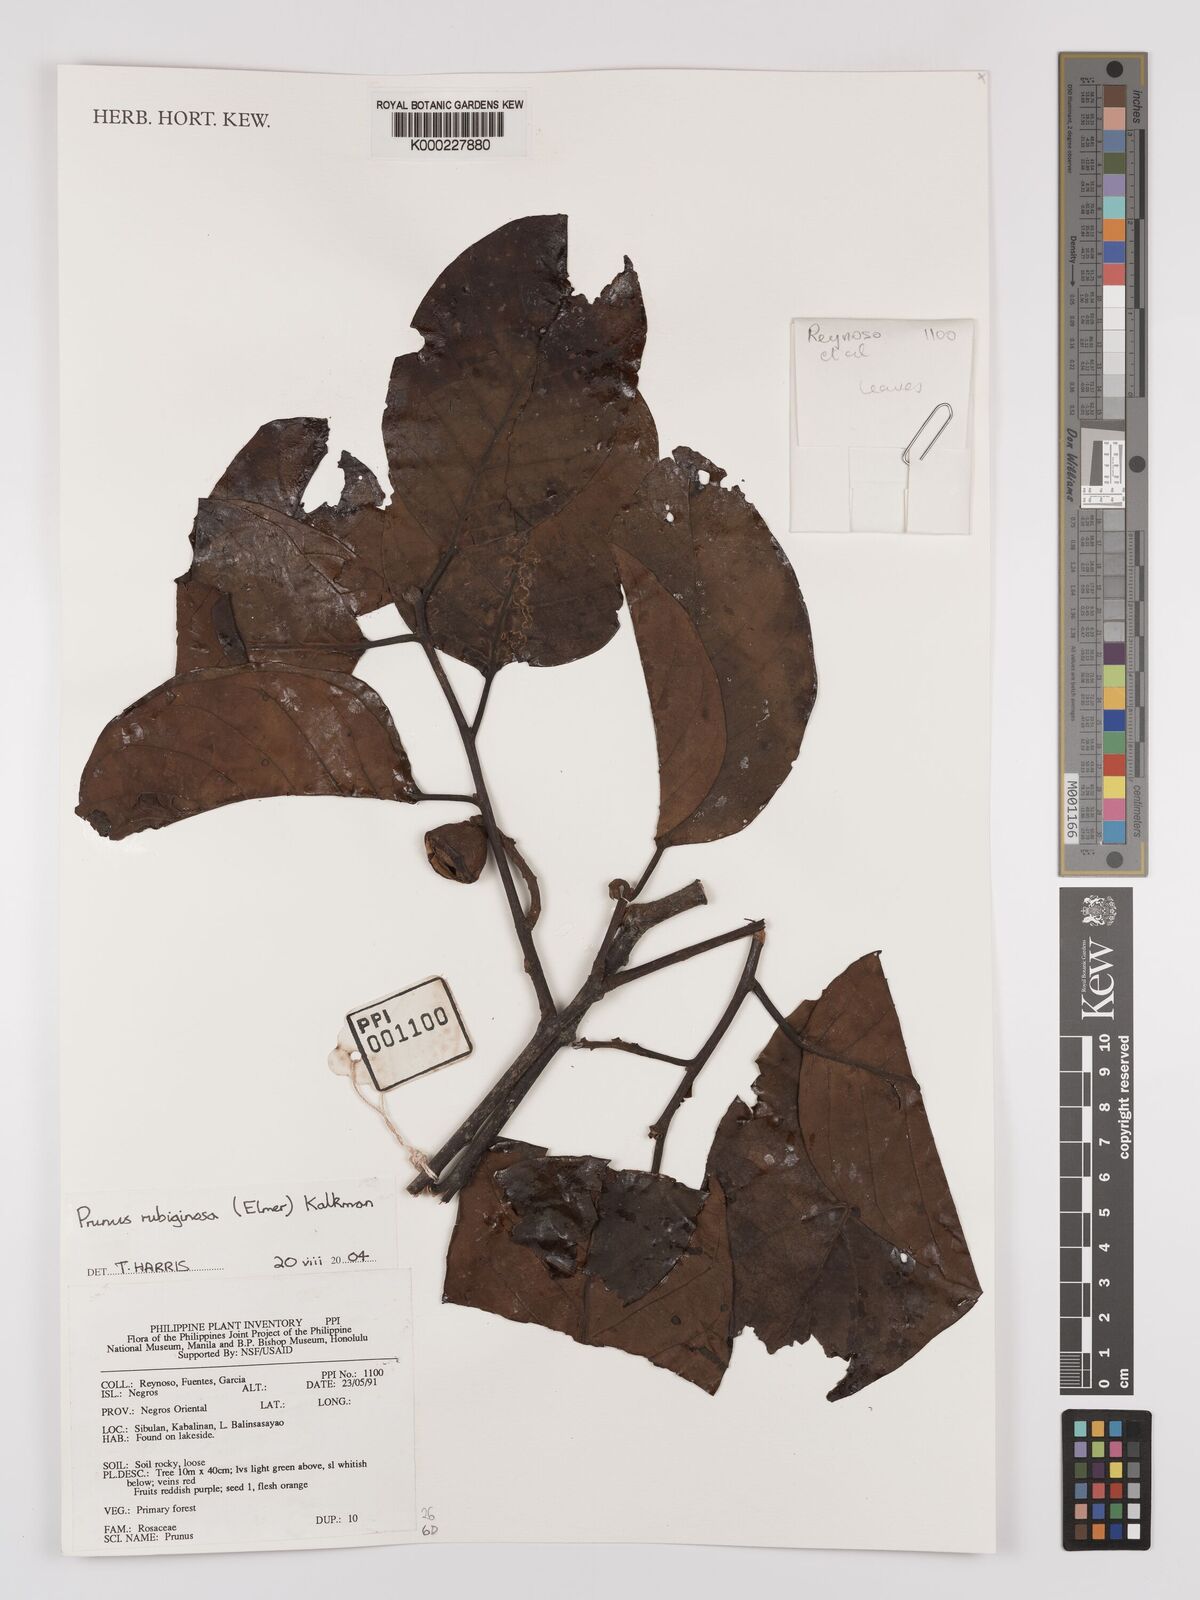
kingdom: Plantae
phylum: Tracheophyta
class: Magnoliopsida
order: Rosales
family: Rosaceae
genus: Prunus
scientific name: Prunus rubiginosa
